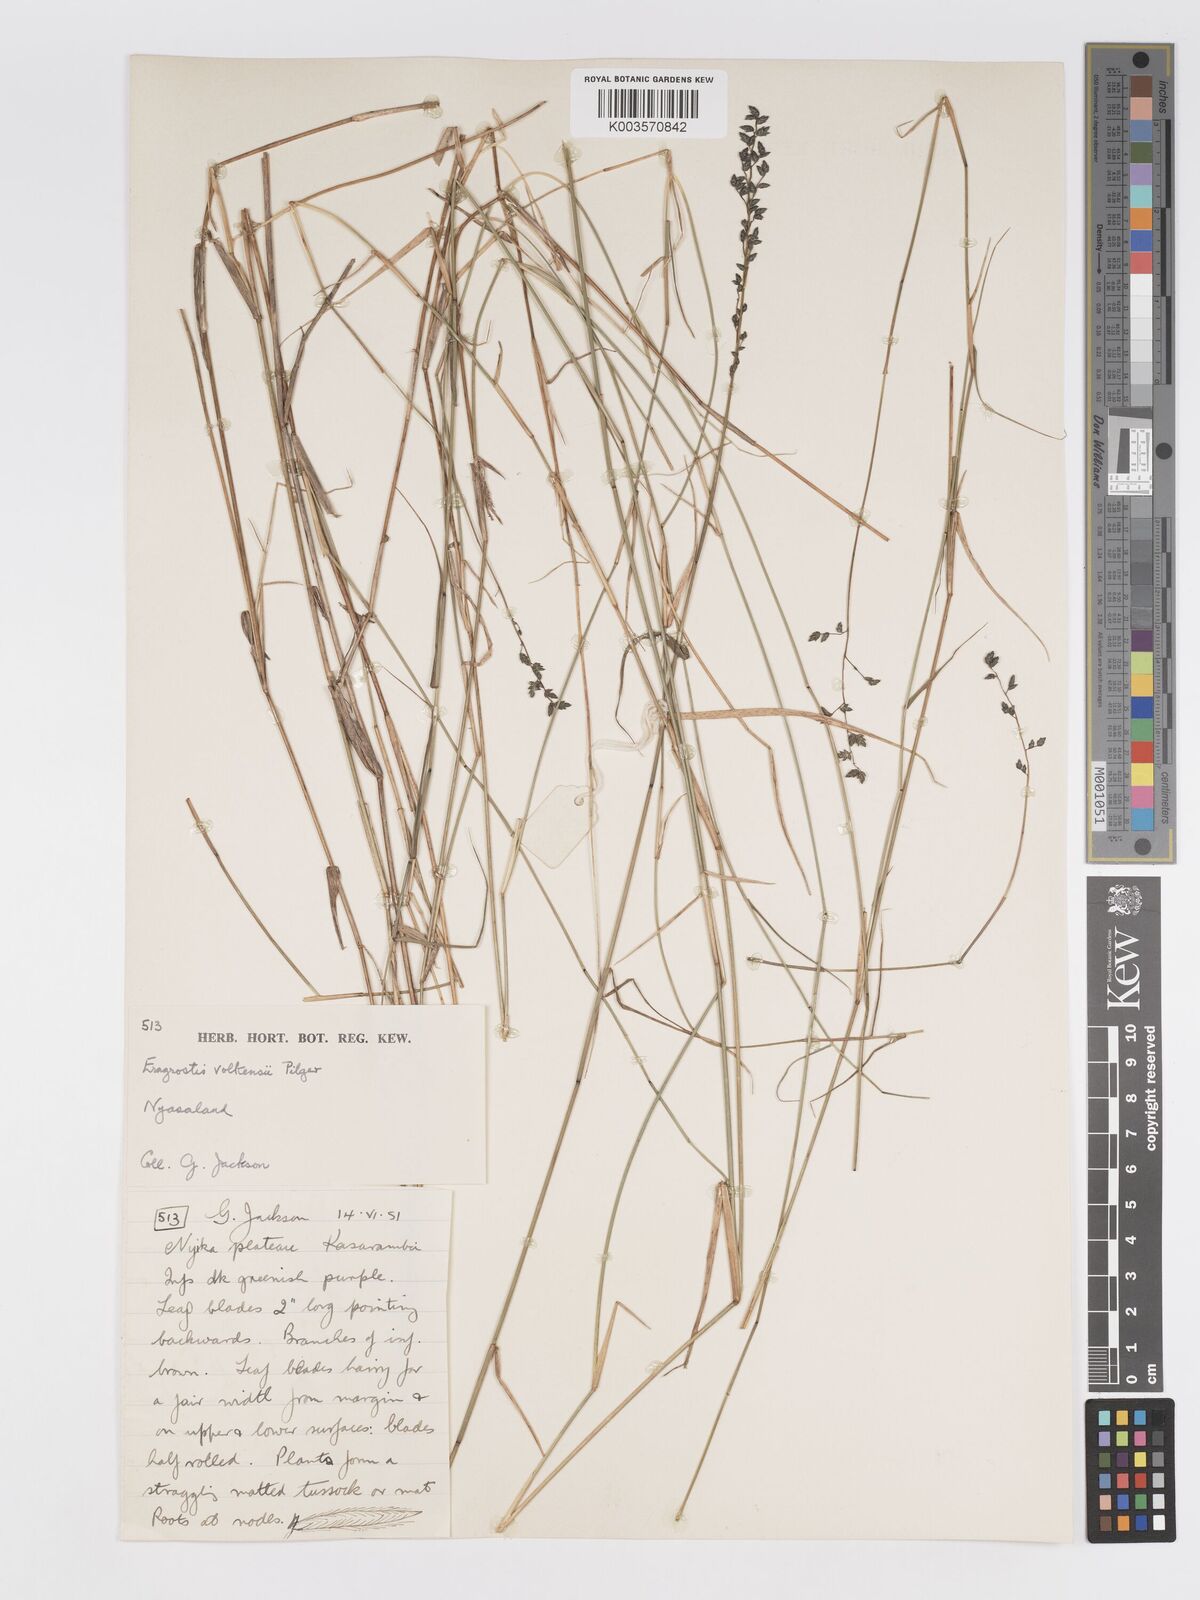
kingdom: Plantae
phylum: Tracheophyta
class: Liliopsida
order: Poales
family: Poaceae
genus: Eragrostis
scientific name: Eragrostis volkensii
